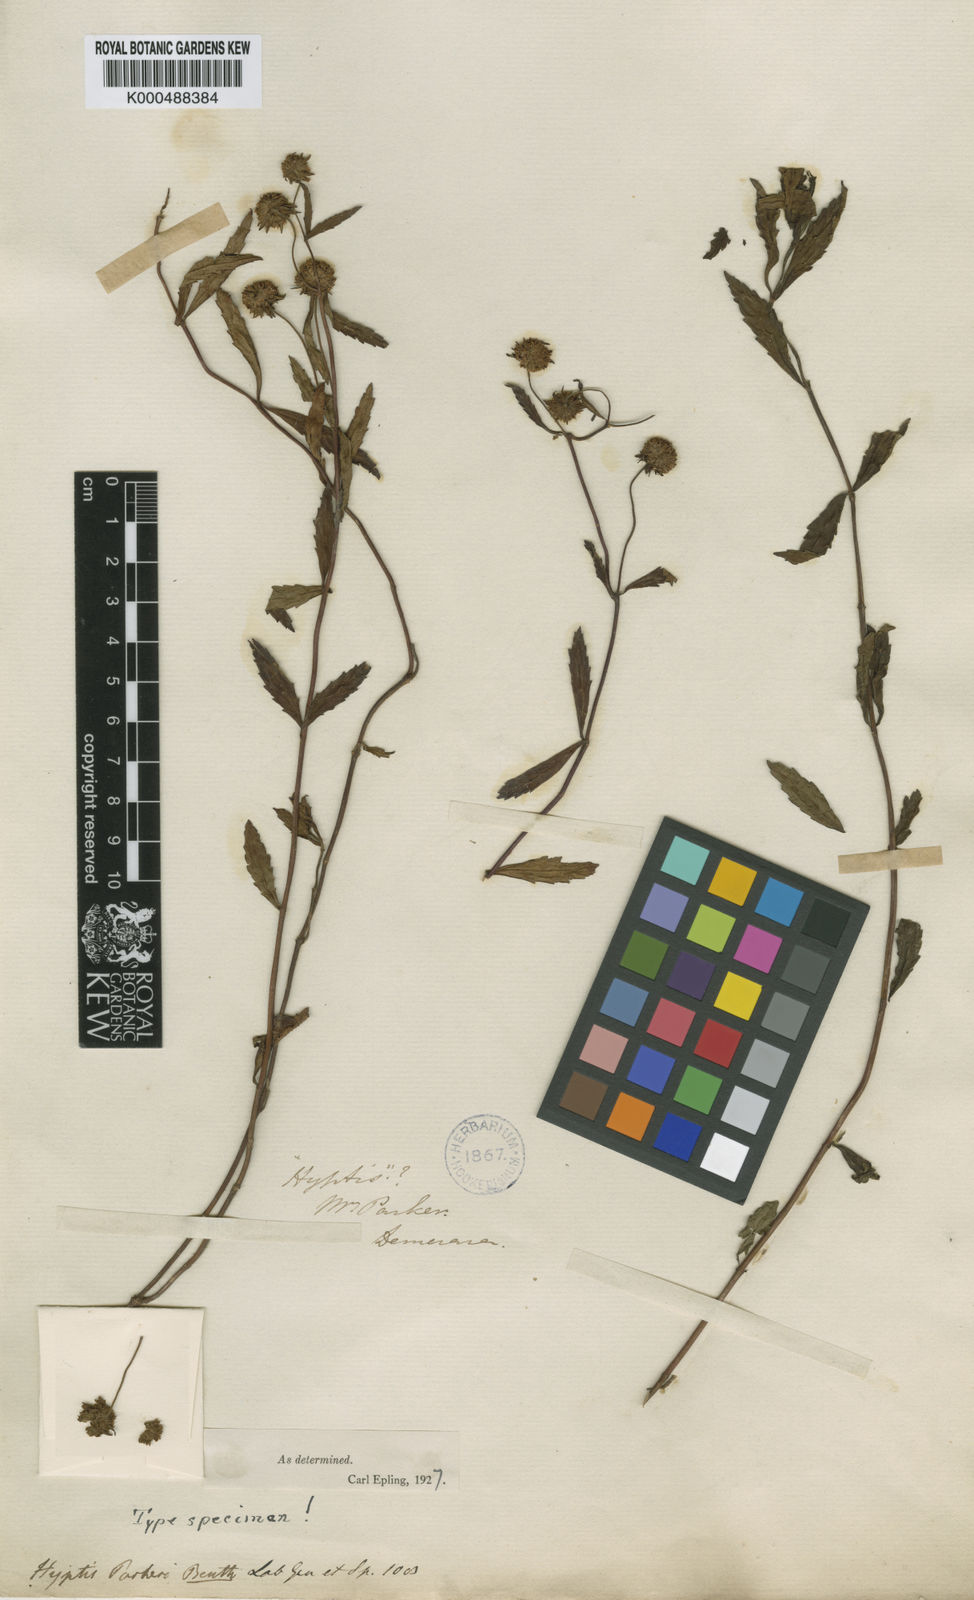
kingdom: Plantae
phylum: Tracheophyta
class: Magnoliopsida
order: Lamiales
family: Lamiaceae
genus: Hyptis
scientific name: Hyptis parkeri
